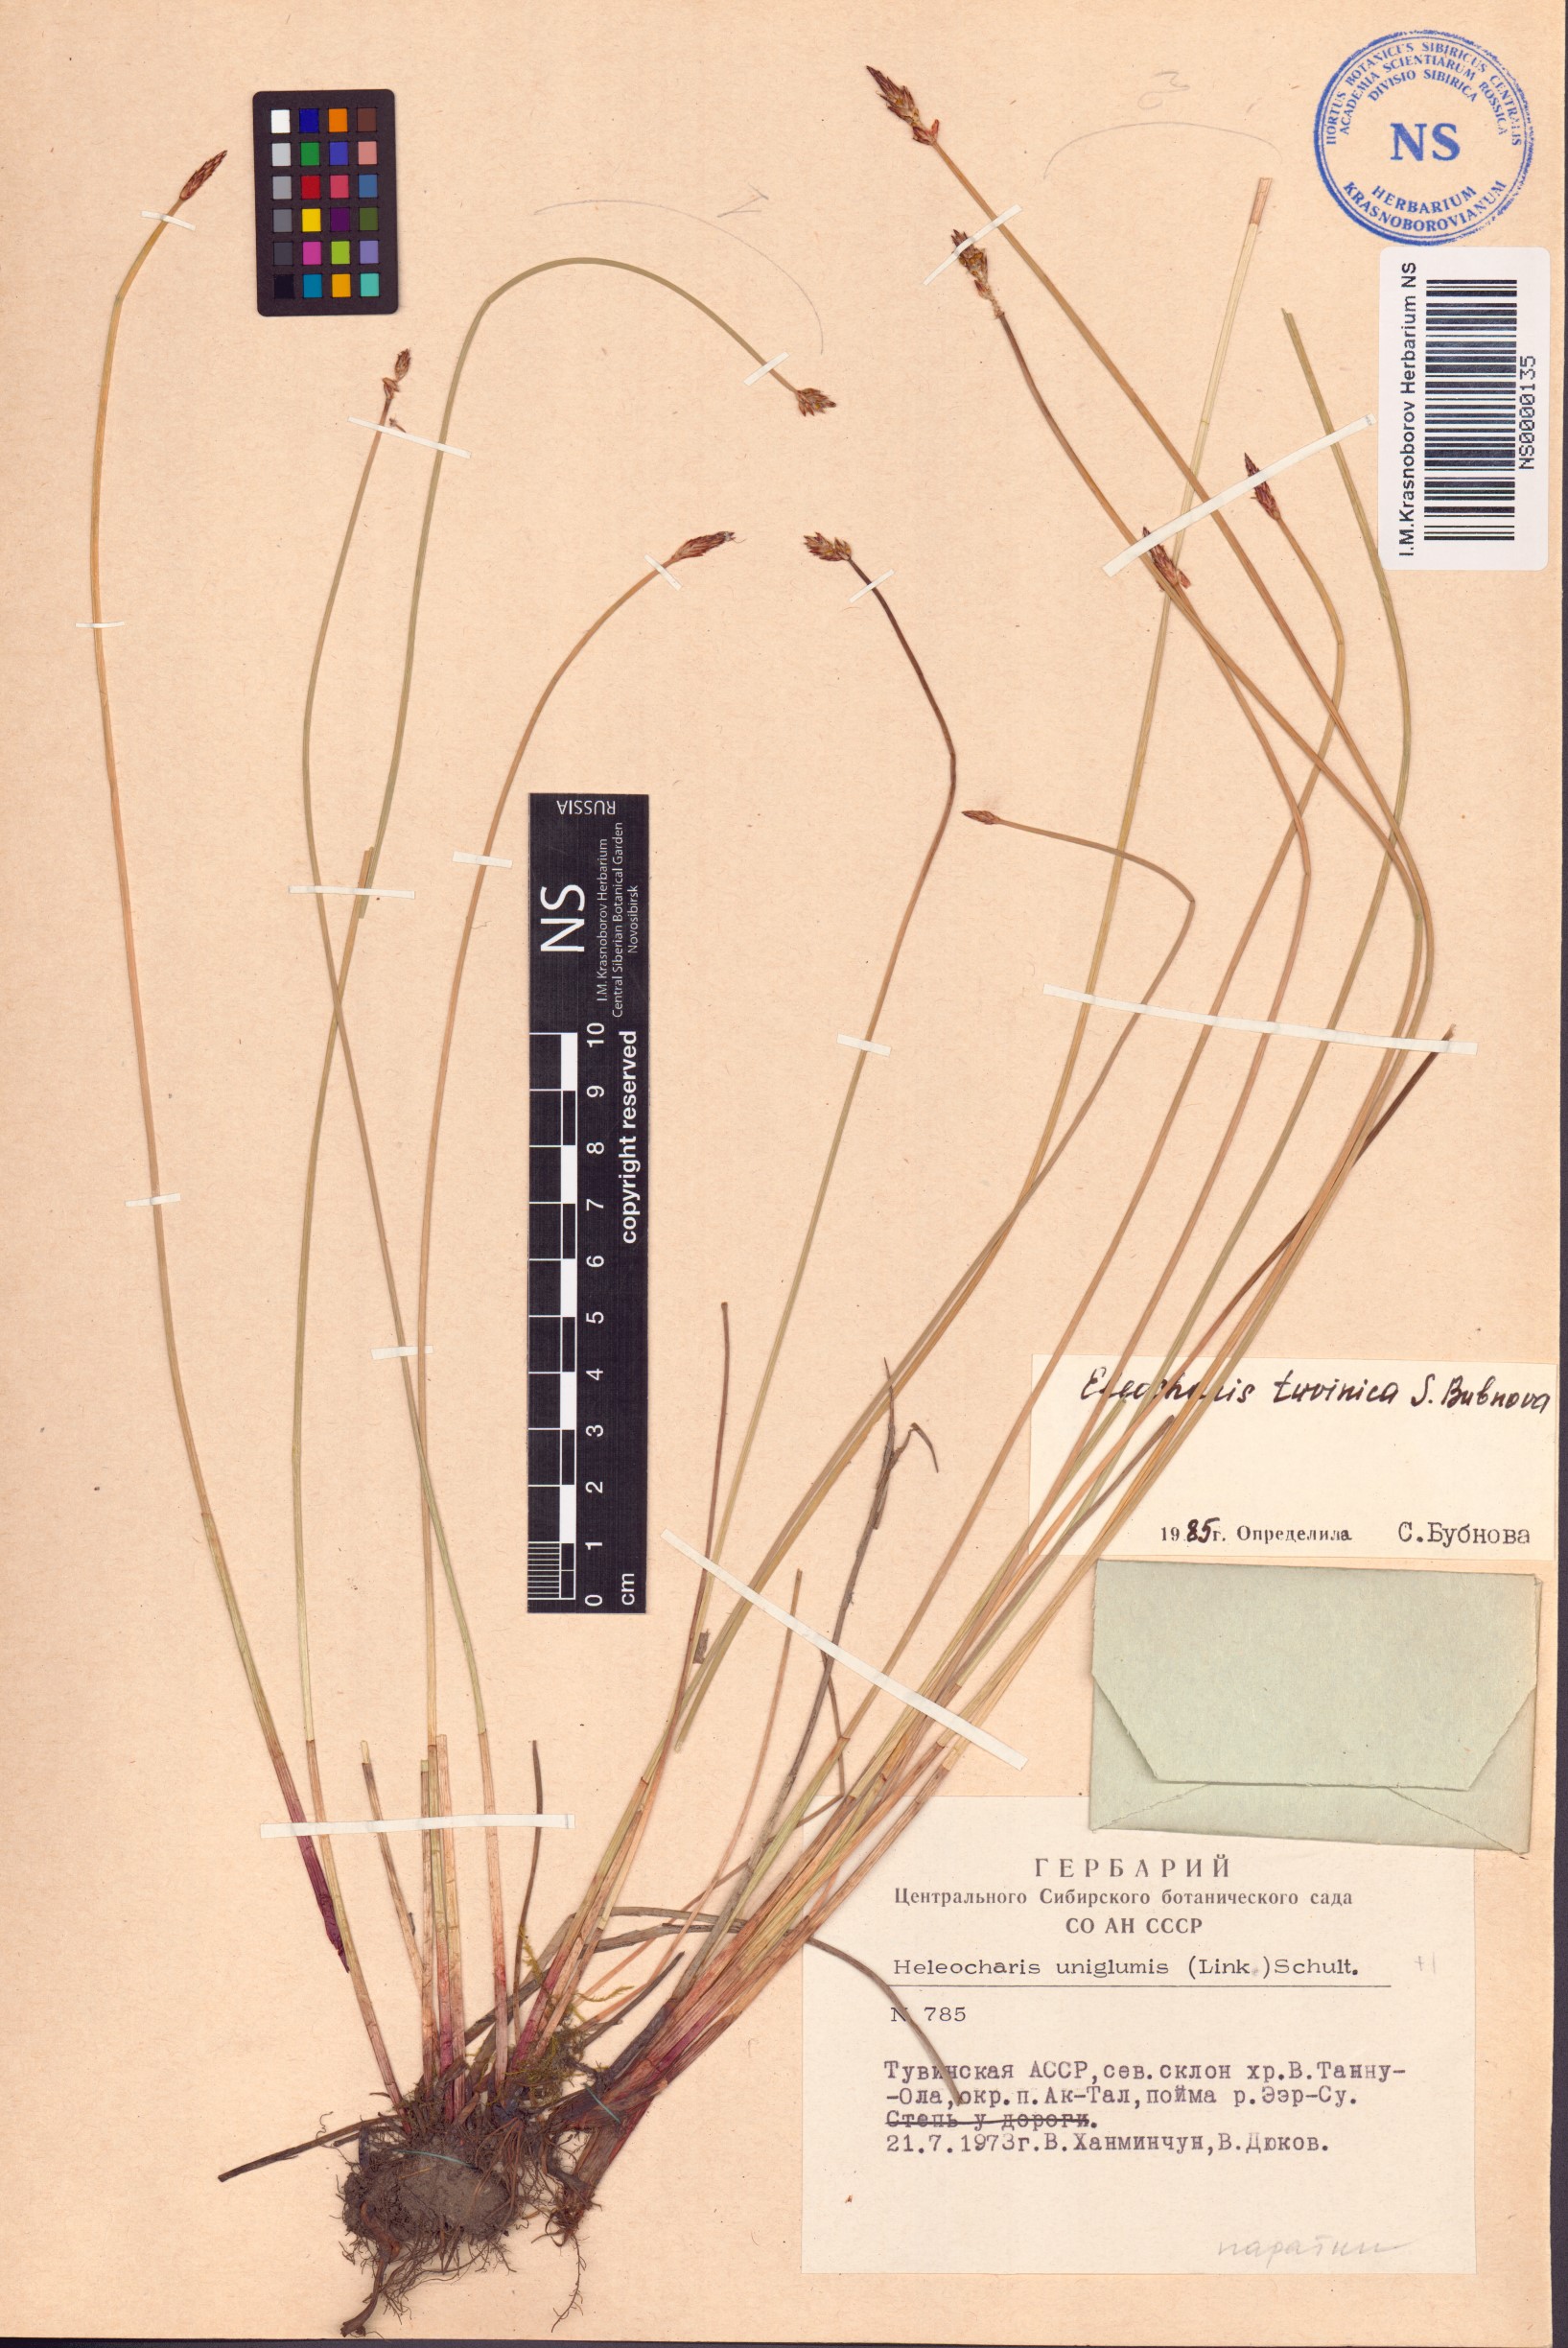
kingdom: Plantae
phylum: Tracheophyta
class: Liliopsida
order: Poales
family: Cyperaceae
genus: Eleocharis
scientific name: Eleocharis tuvinica
